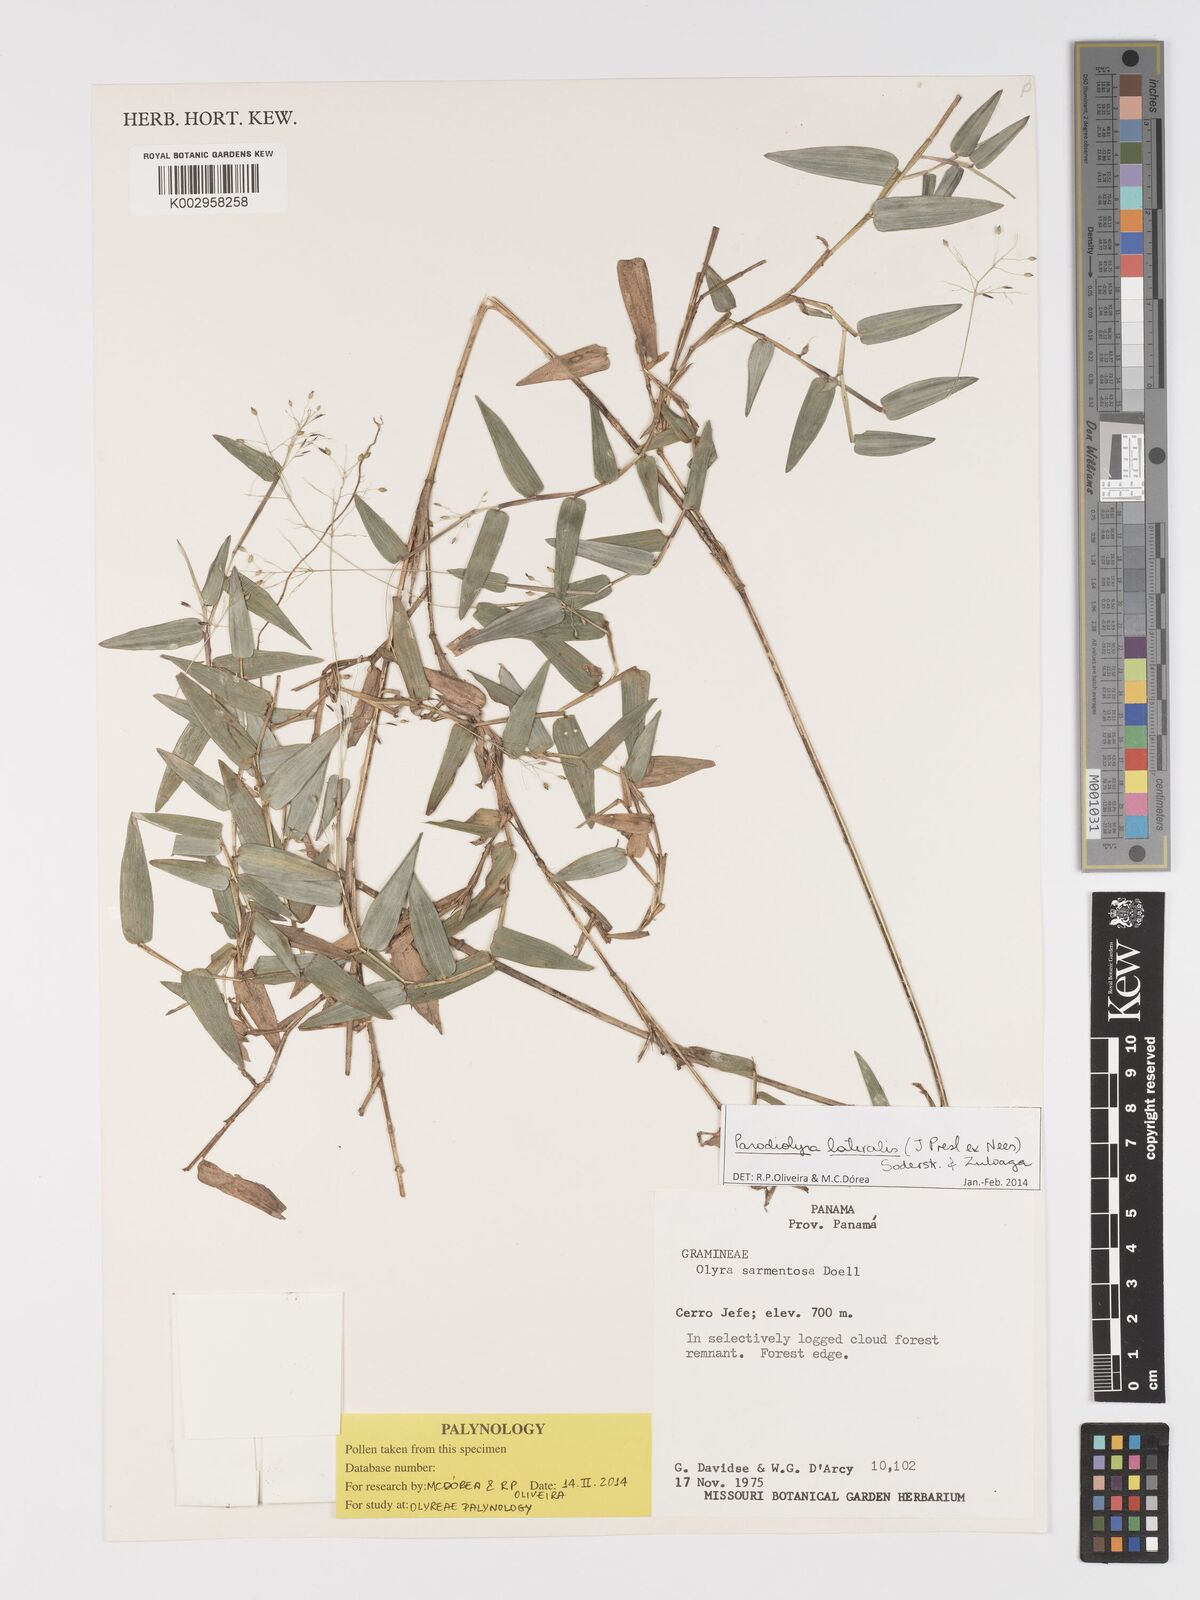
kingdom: Plantae
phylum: Tracheophyta
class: Liliopsida
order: Poales
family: Poaceae
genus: Parodiolyra
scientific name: Parodiolyra lateralis
